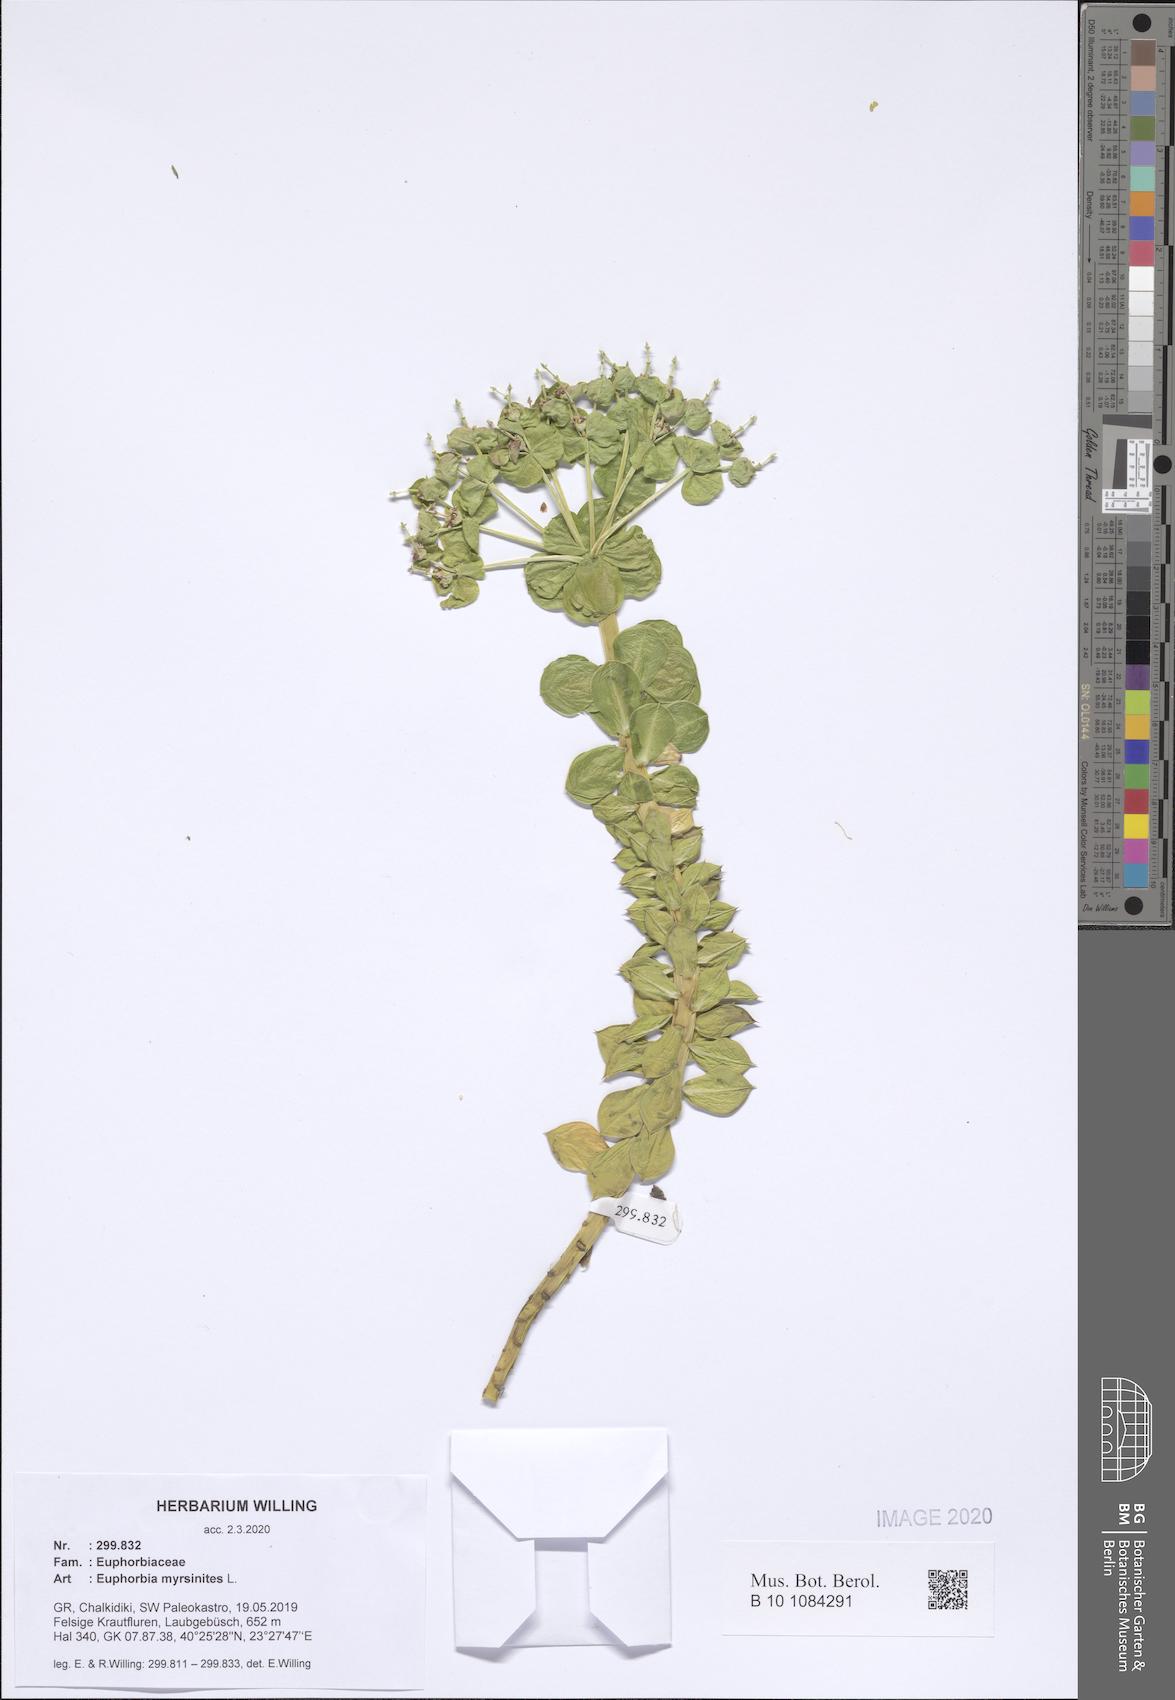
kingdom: Plantae
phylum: Tracheophyta
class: Magnoliopsida
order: Malpighiales
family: Euphorbiaceae
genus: Euphorbia
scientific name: Euphorbia myrsinites
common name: Myrtle spurge
